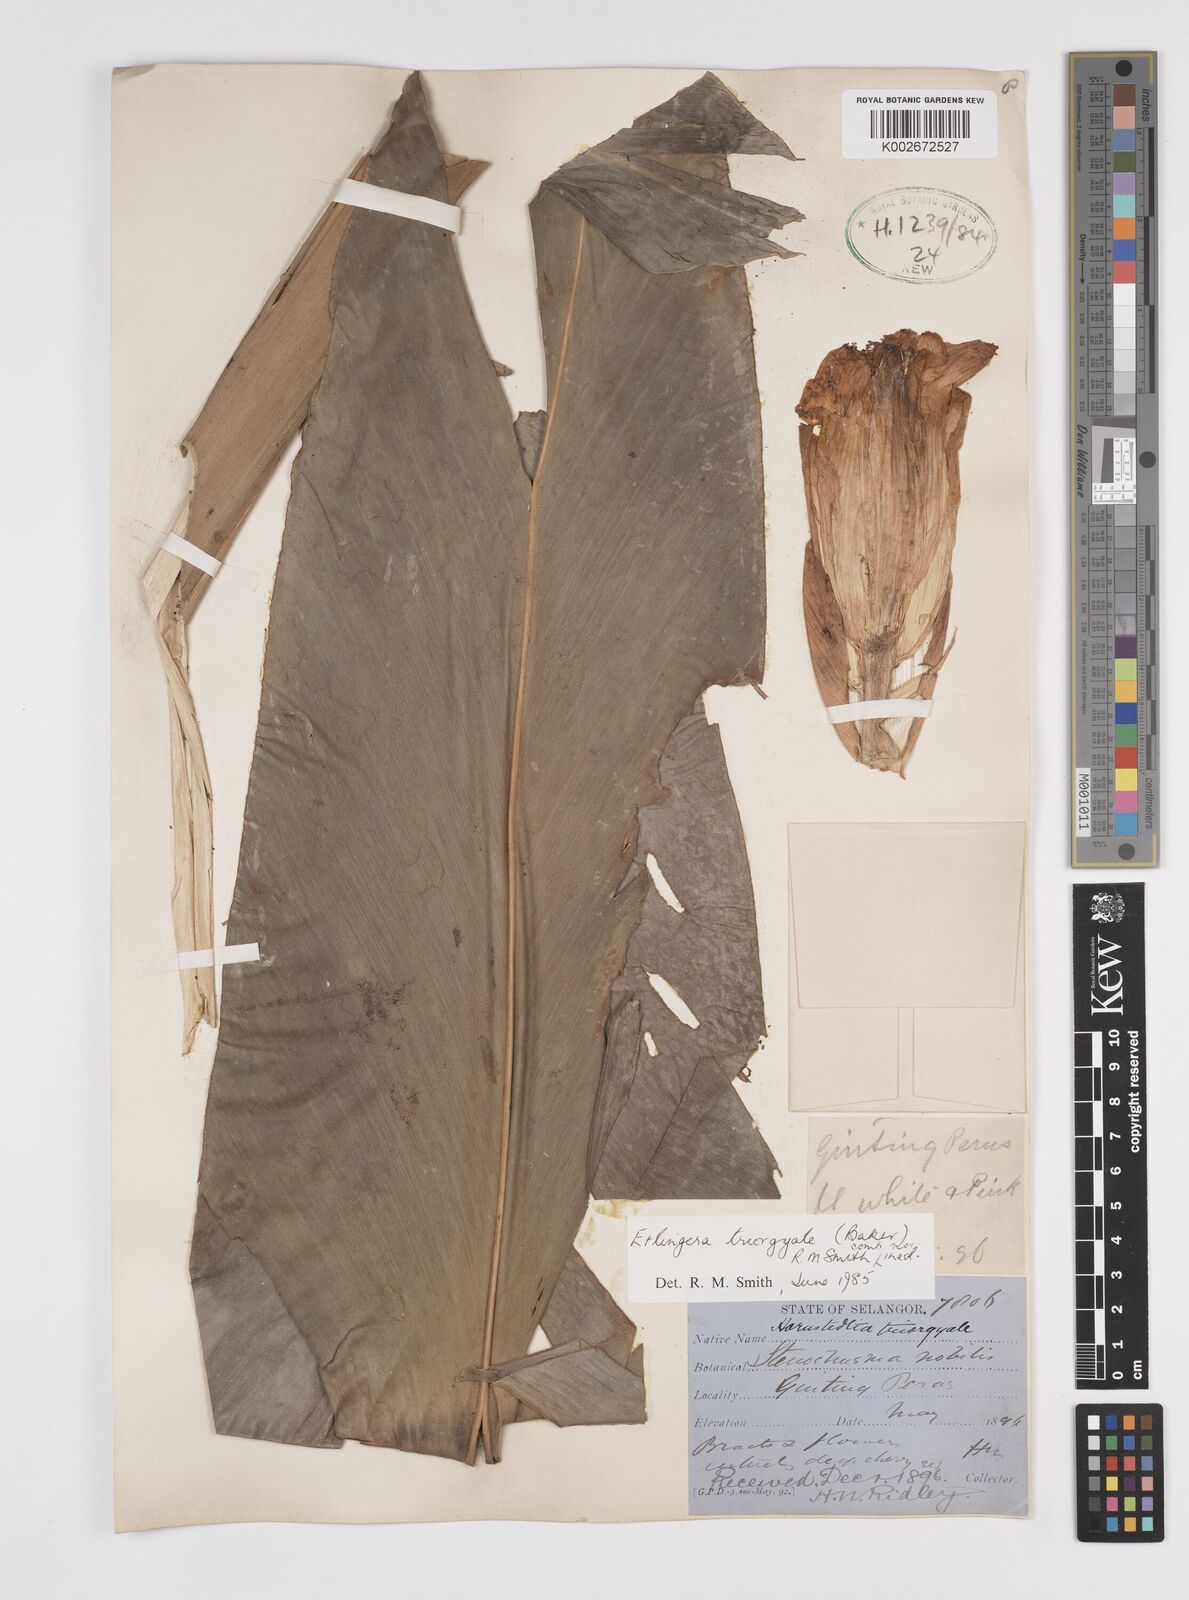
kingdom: Plantae
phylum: Tracheophyta
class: Liliopsida
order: Zingiberales
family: Zingiberaceae
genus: Etlingera
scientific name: Etlingera triorgyalis
